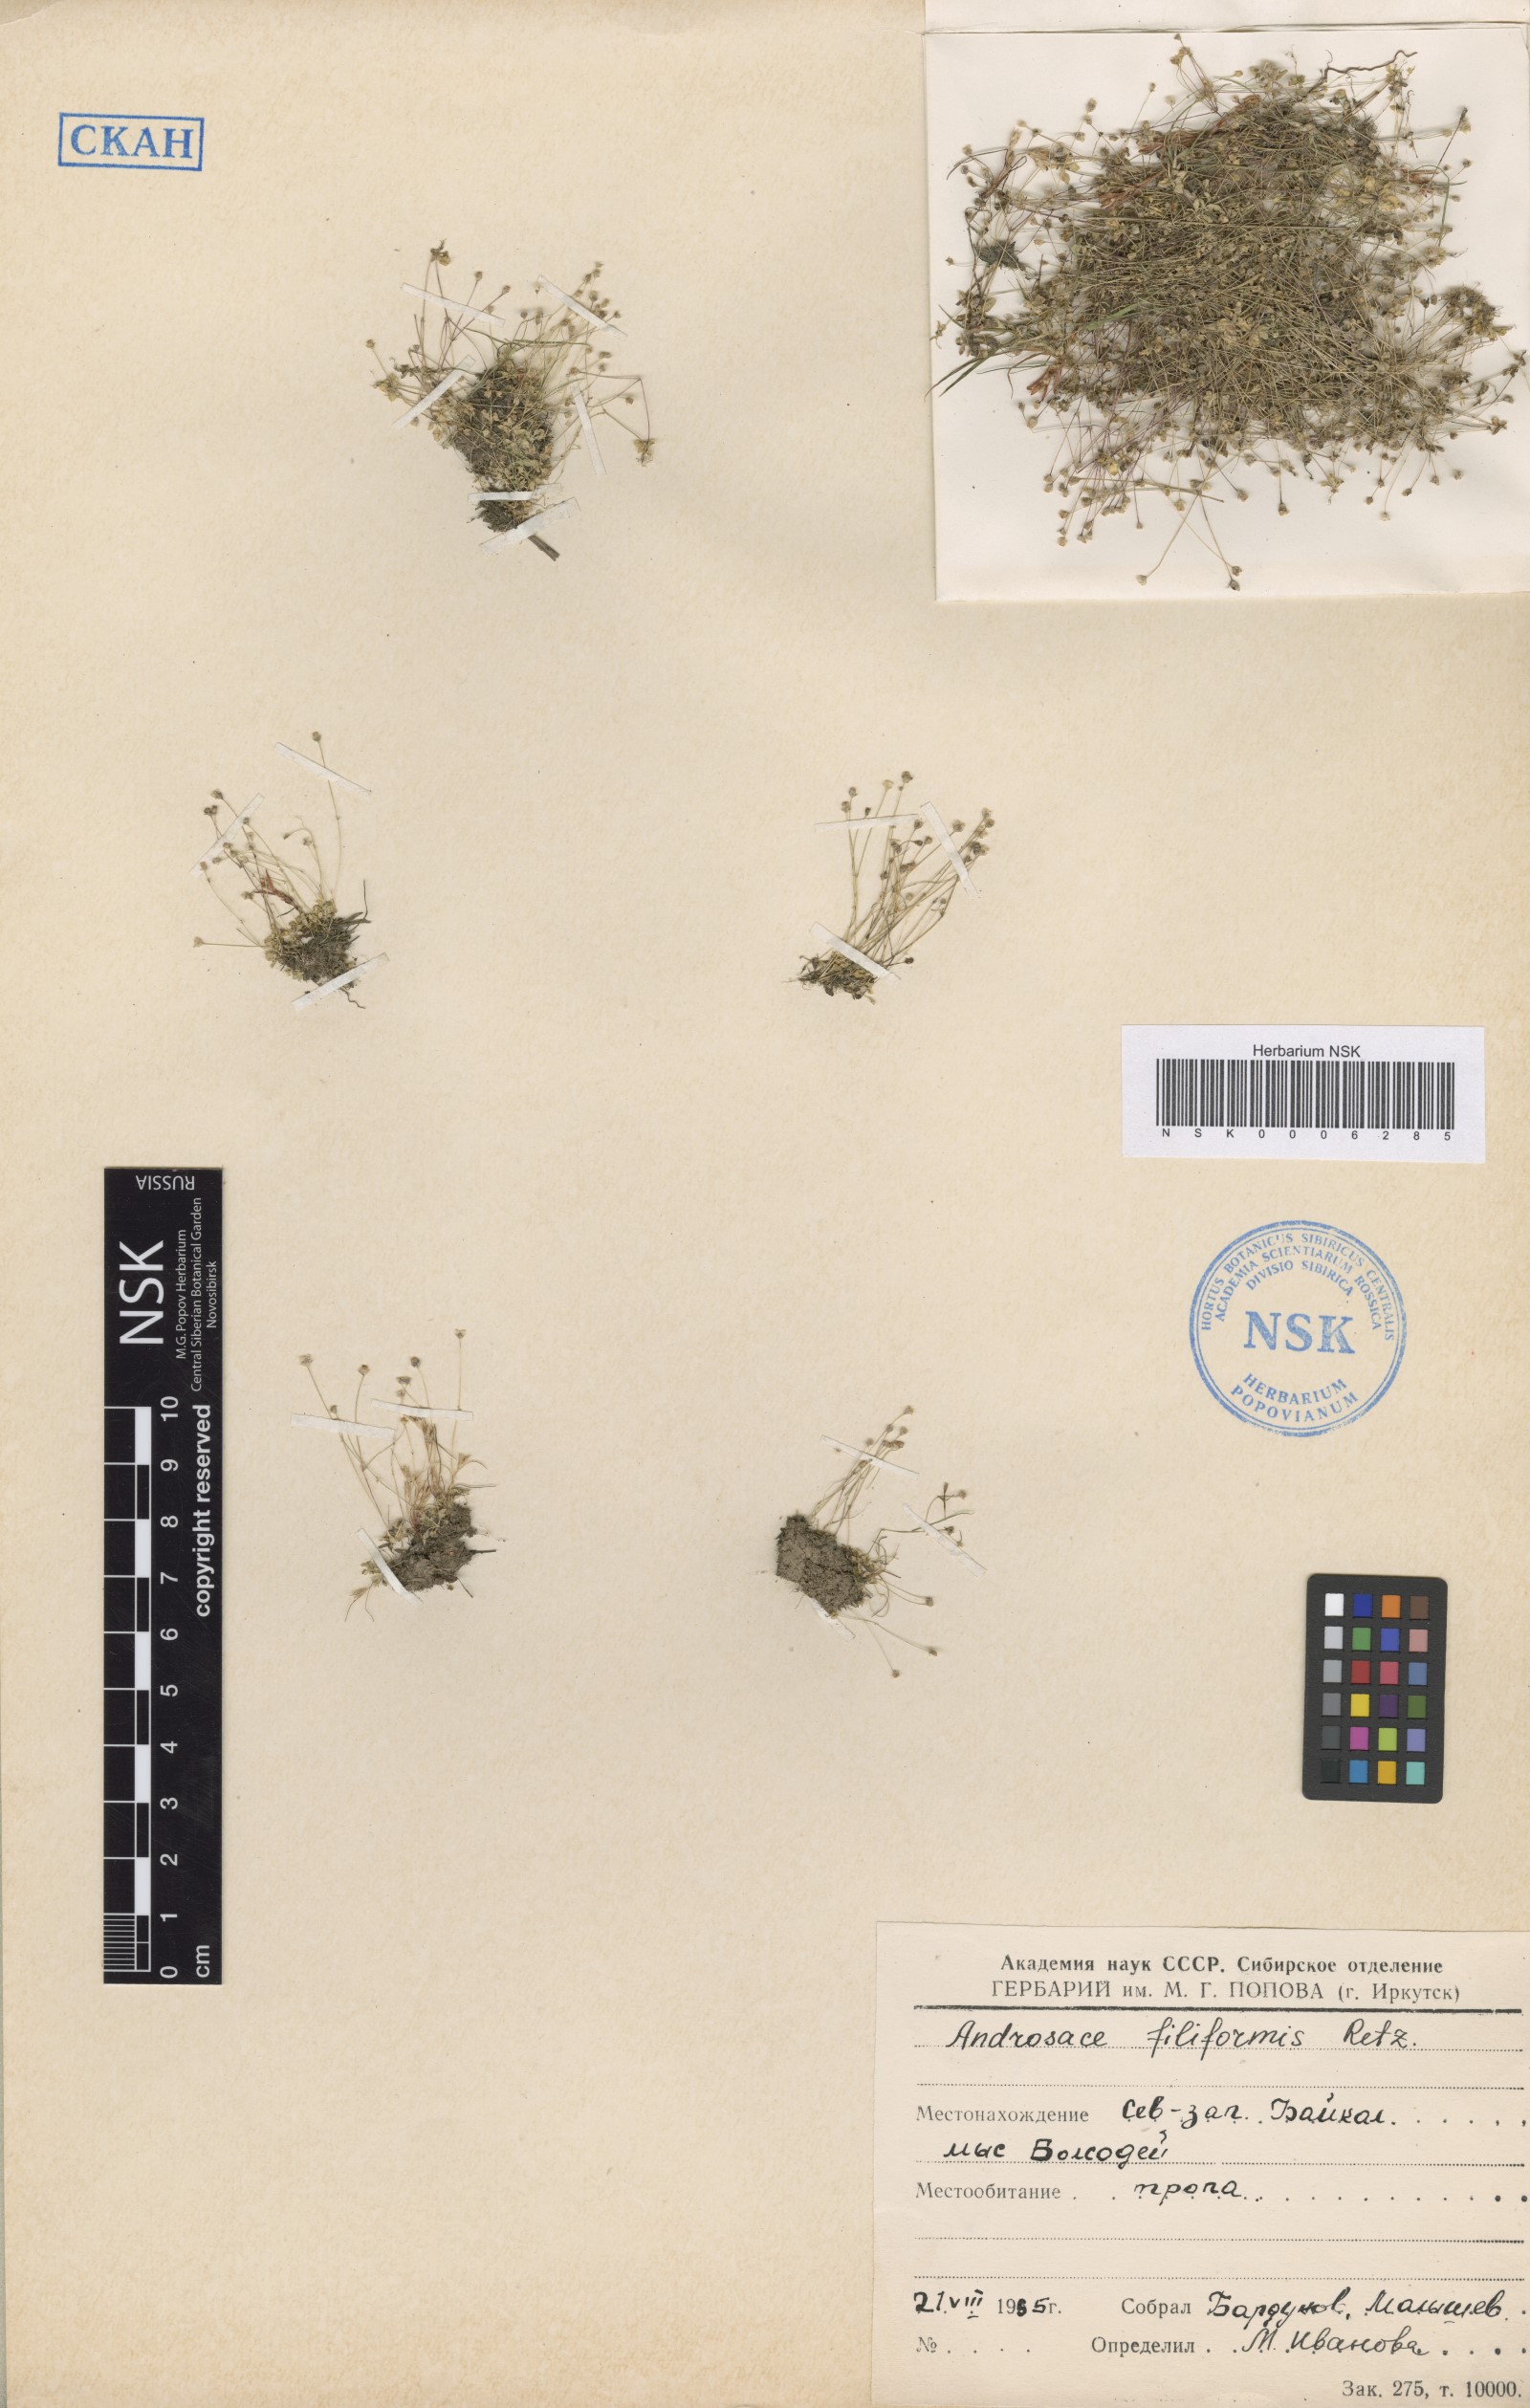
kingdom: Plantae
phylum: Tracheophyta
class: Magnoliopsida
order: Ericales
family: Primulaceae
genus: Androsace
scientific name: Androsace filiformis
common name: Filiform rock jasmine
